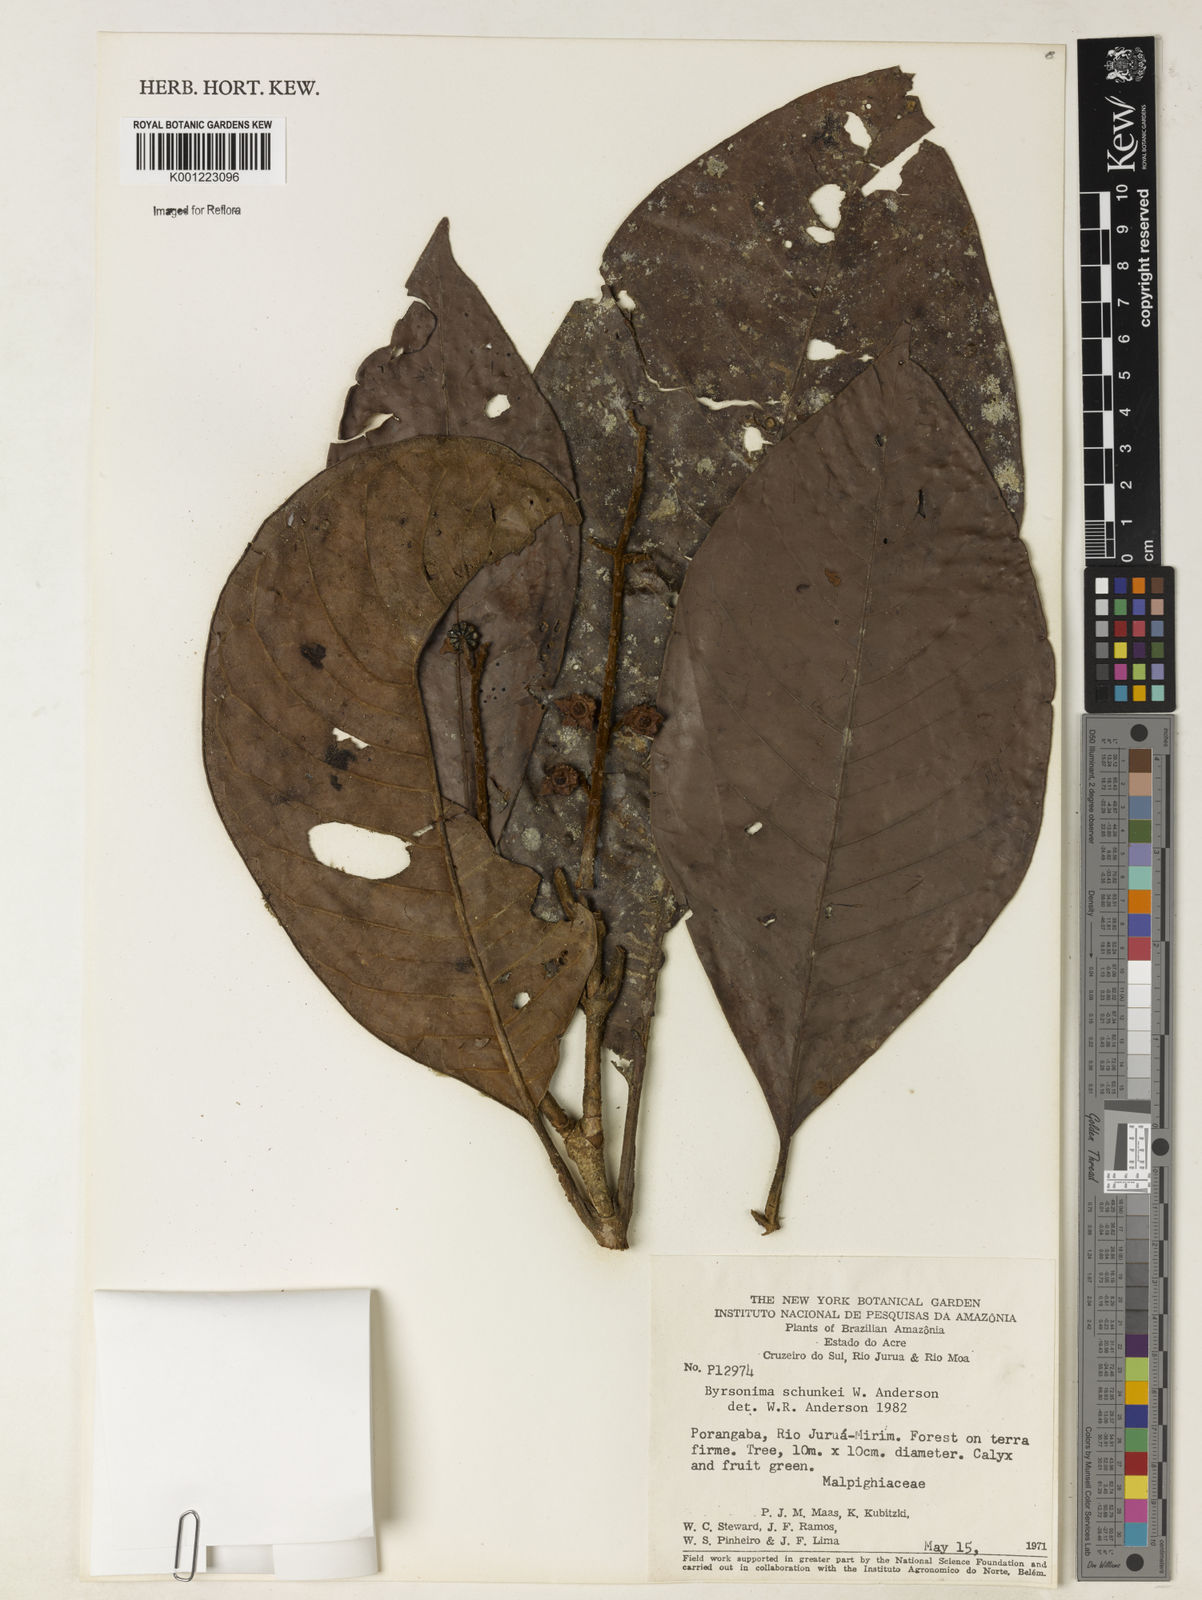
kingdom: Plantae
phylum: Tracheophyta
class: Magnoliopsida
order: Malpighiales
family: Malpighiaceae
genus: Byrsonima
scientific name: Byrsonima schunkei
